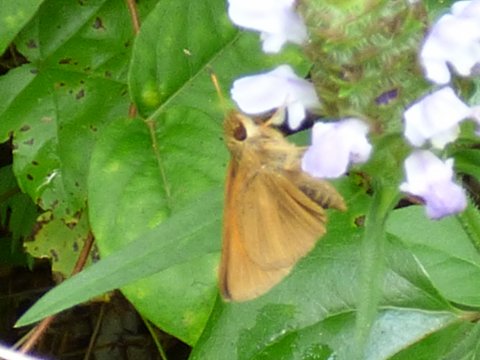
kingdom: Animalia
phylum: Arthropoda
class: Insecta
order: Lepidoptera
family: Hesperiidae
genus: Poanes
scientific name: Poanes aaroni
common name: Aaron's Skipper
